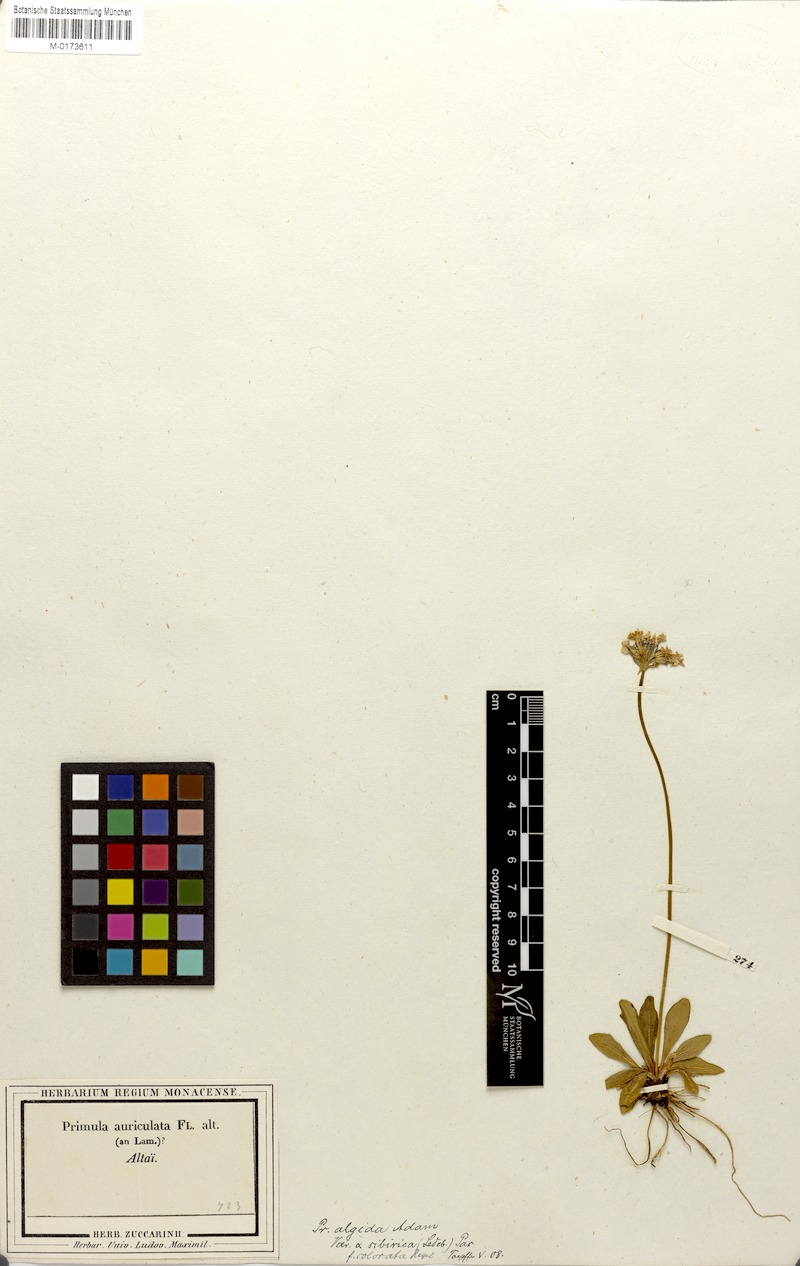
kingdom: Plantae
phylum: Tracheophyta
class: Magnoliopsida
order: Ericales
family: Primulaceae
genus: Primula
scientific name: Primula algida
